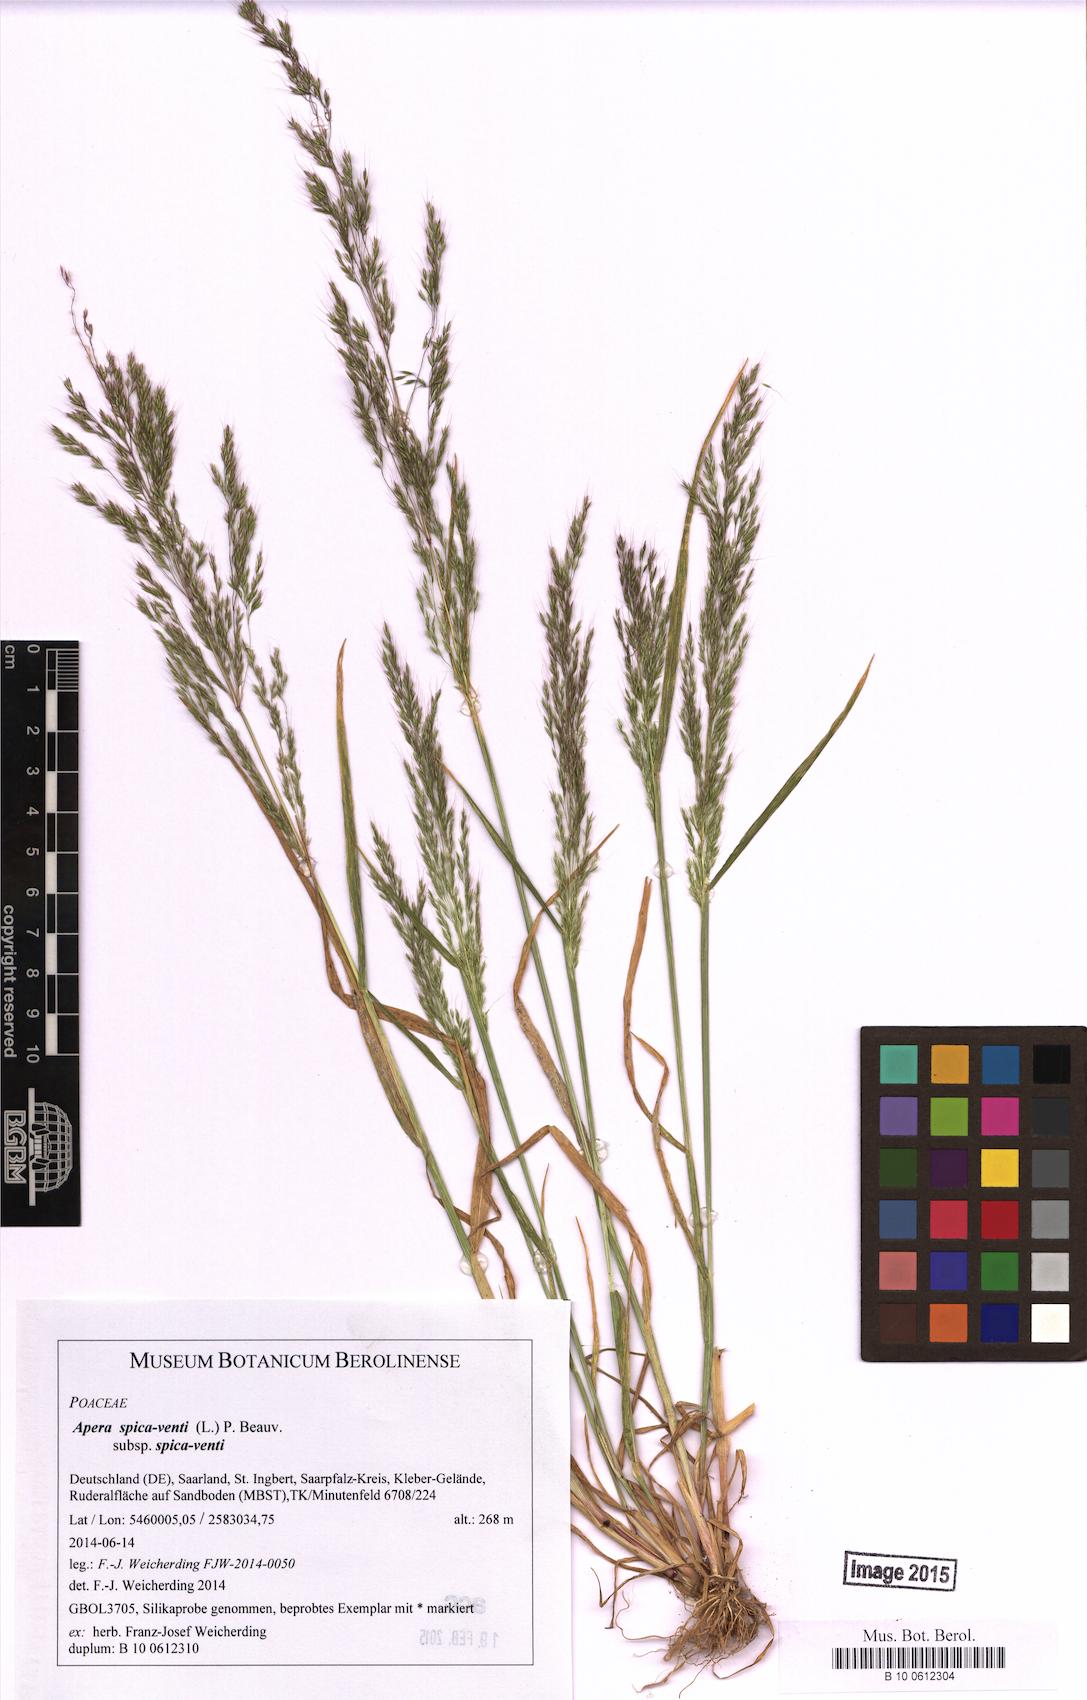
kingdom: Plantae
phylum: Tracheophyta
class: Liliopsida
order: Poales
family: Poaceae
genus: Apera
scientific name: Apera spica-venti
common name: Loose silky-bent
